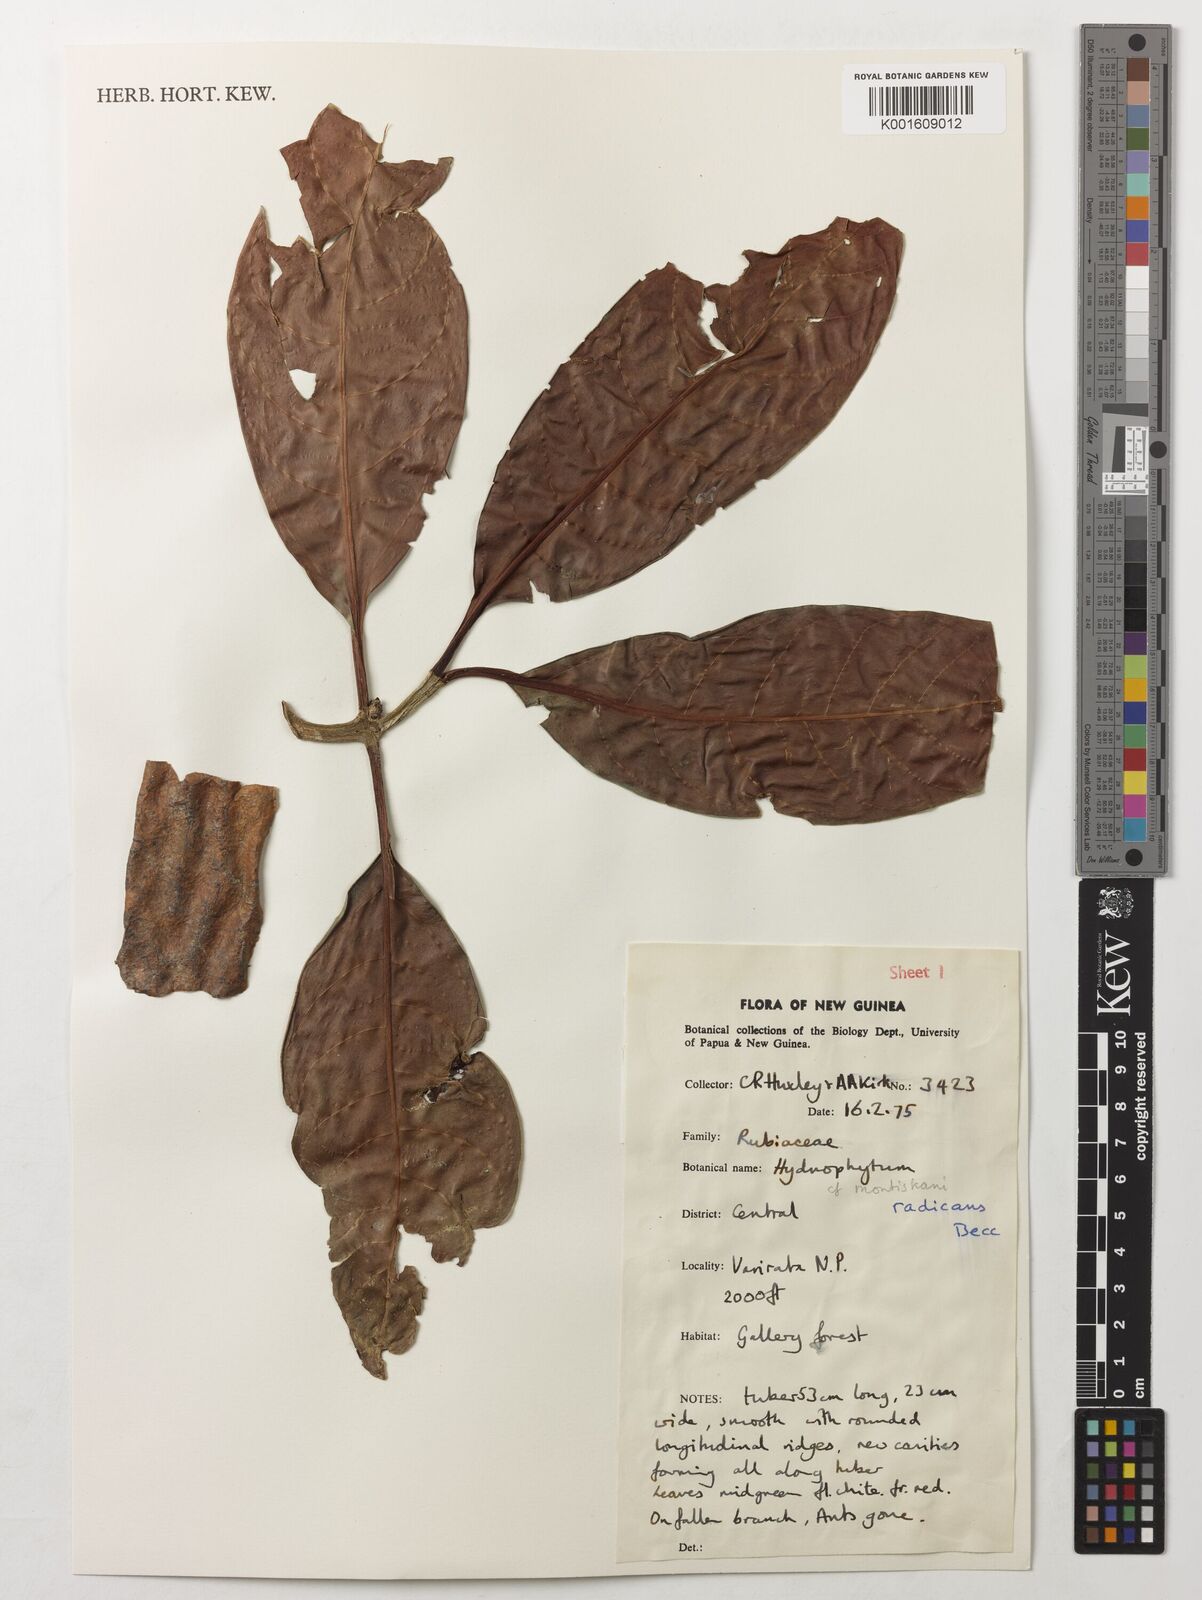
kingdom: Plantae
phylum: Tracheophyta
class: Magnoliopsida
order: Gentianales
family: Rubiaceae
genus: Hydnophytum
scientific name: Hydnophytum radicans
